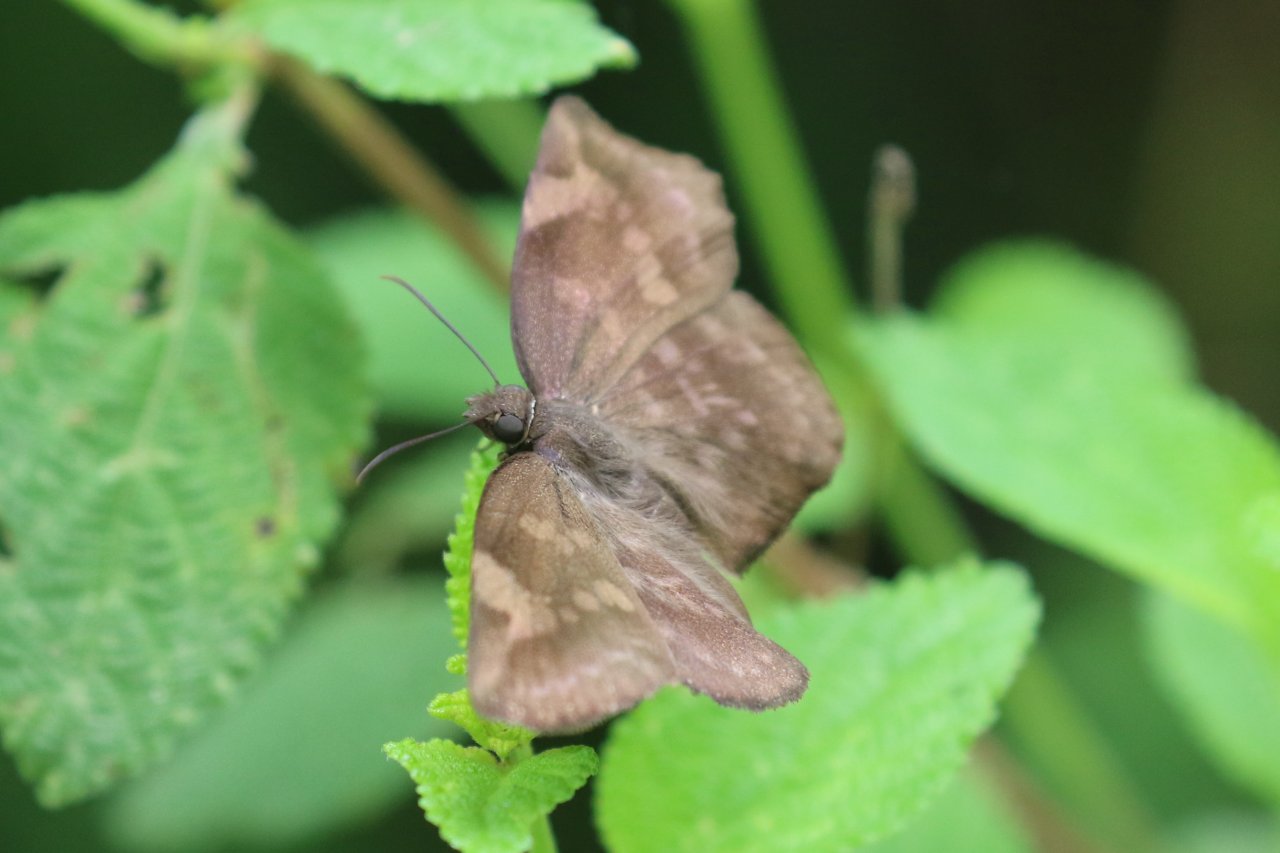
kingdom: Animalia
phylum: Arthropoda
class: Insecta
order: Lepidoptera
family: Hesperiidae
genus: Achlyodes
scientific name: Achlyodes thraso
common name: Sickle-winged Skipper
